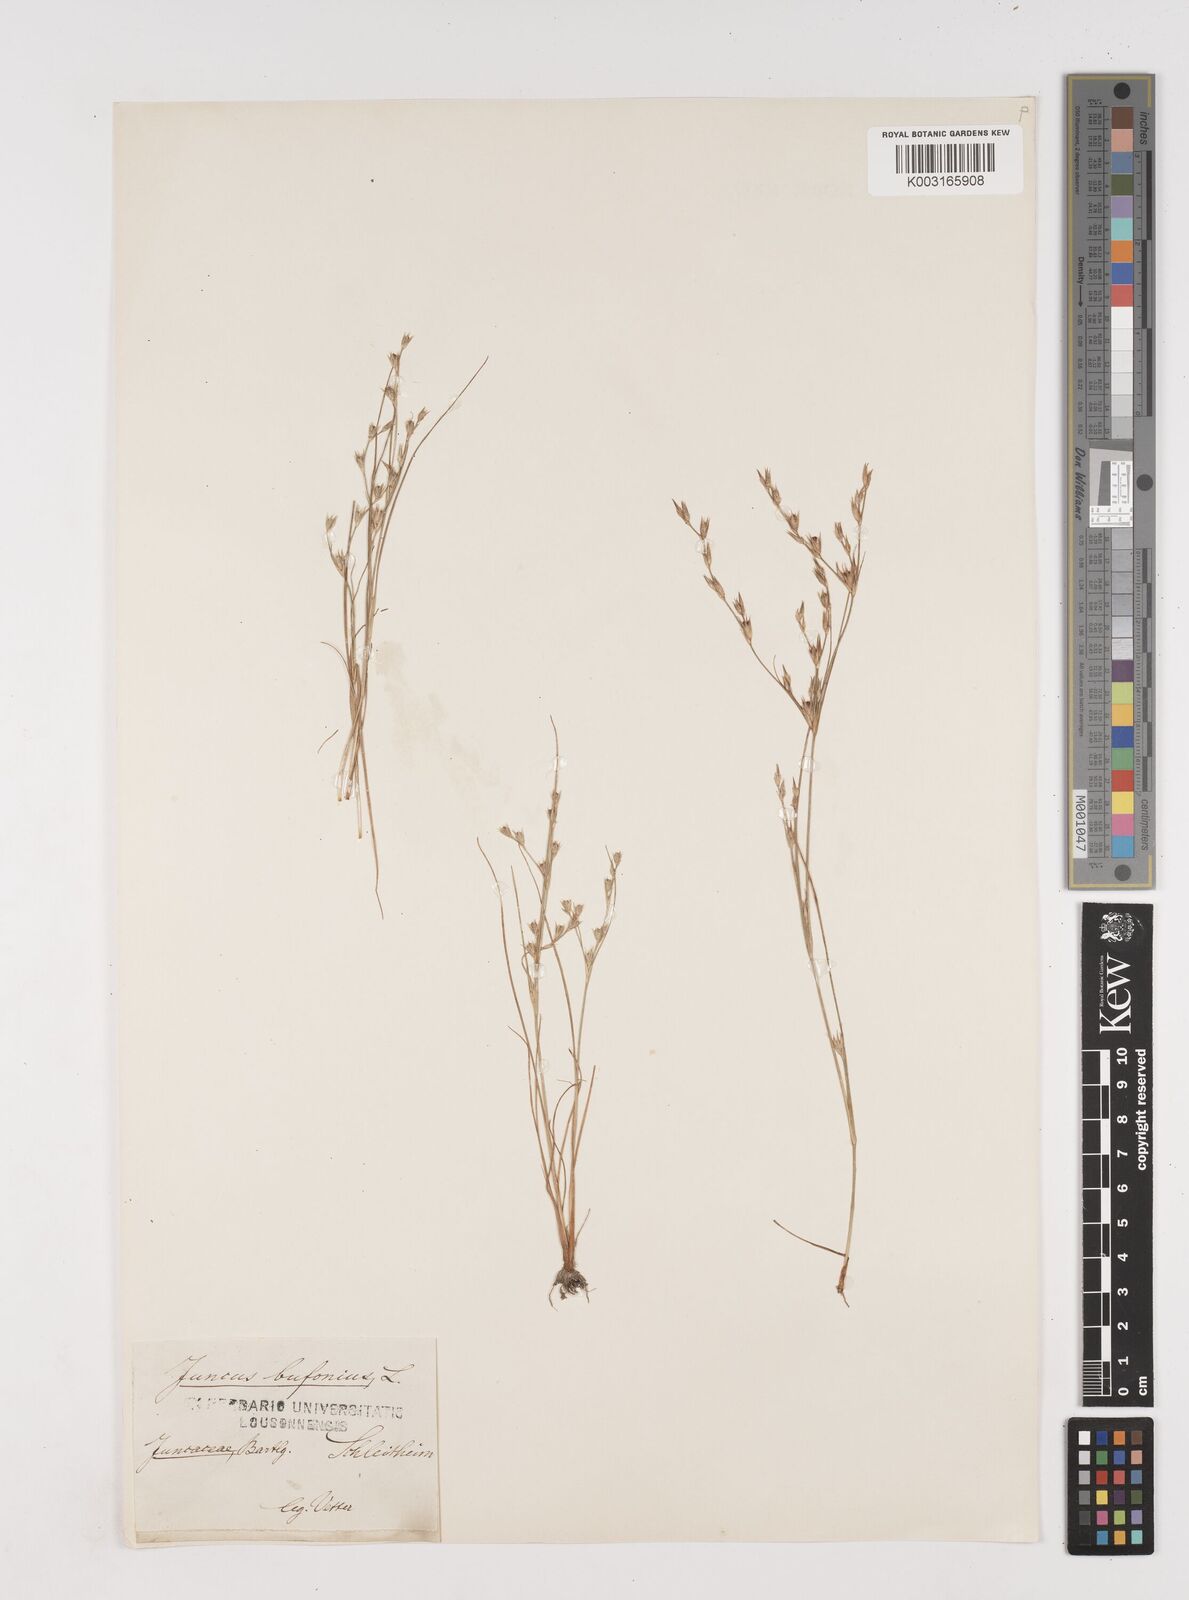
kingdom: Plantae
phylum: Tracheophyta
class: Liliopsida
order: Poales
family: Juncaceae
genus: Juncus
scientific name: Juncus bufonius
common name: Toad rush
